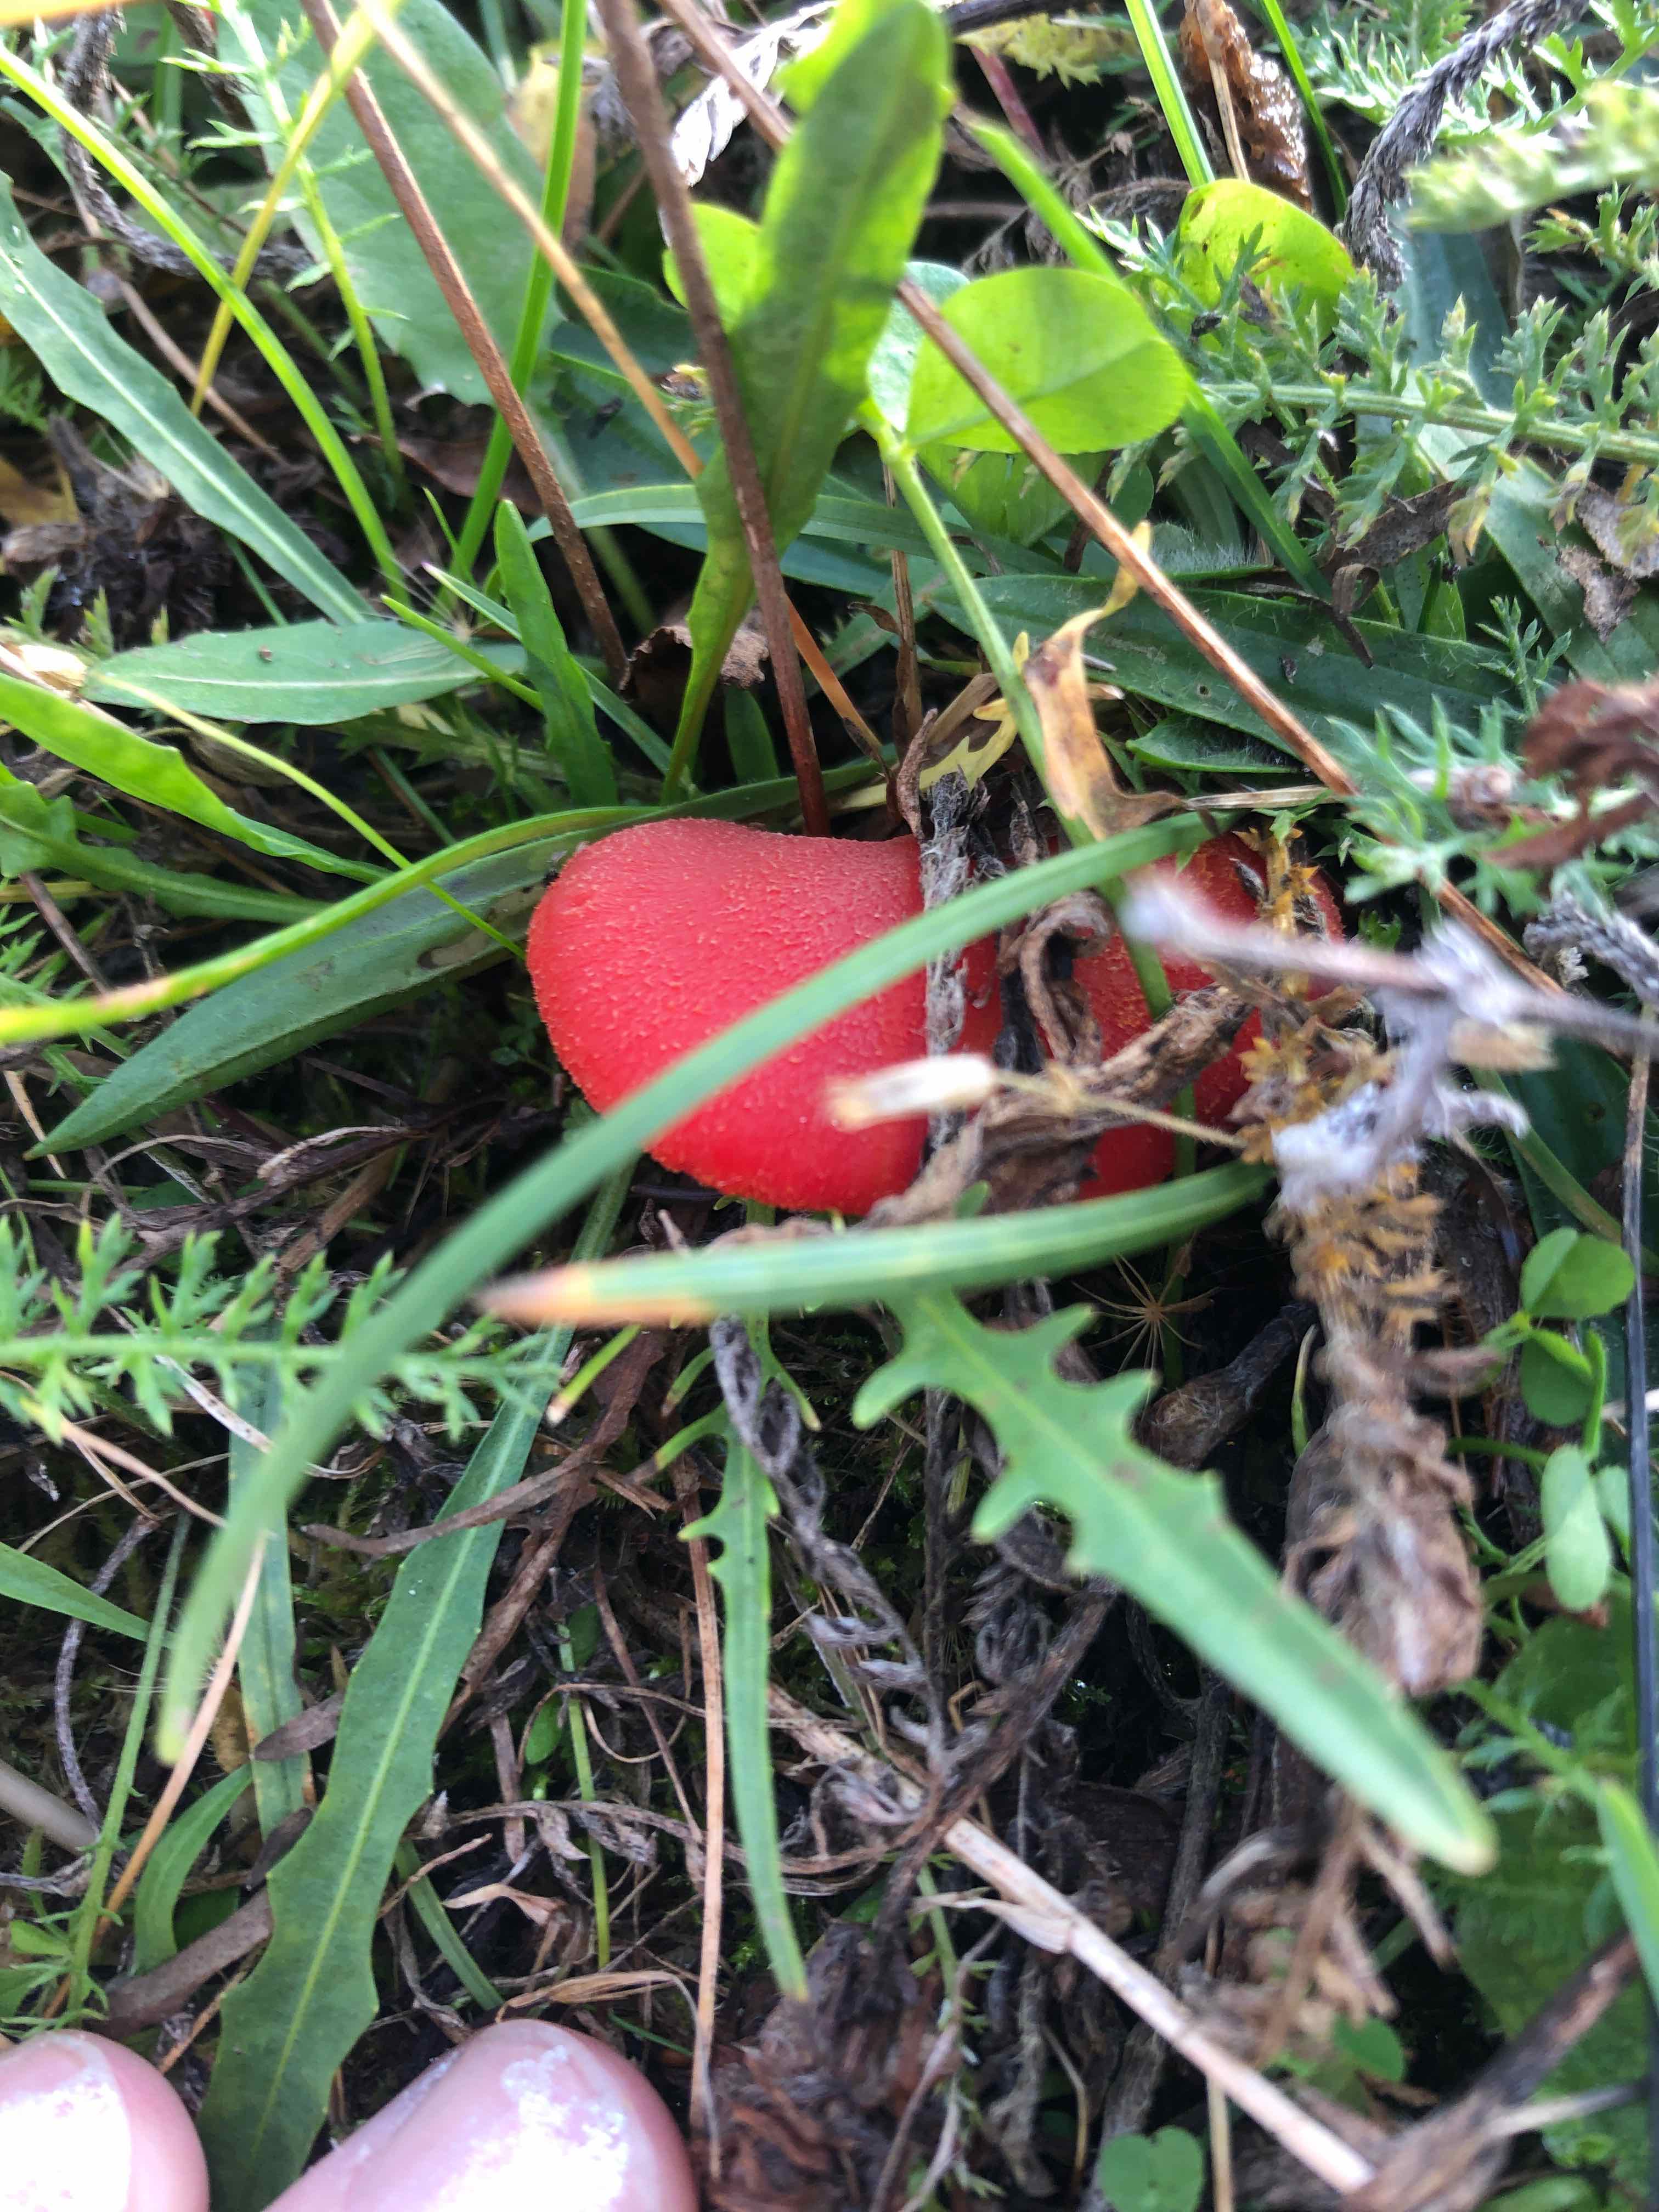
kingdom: Fungi
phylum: Basidiomycota
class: Agaricomycetes
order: Agaricales
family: Hygrophoraceae
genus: Hygrocybe
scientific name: Hygrocybe miniata
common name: mønje-vokshat
